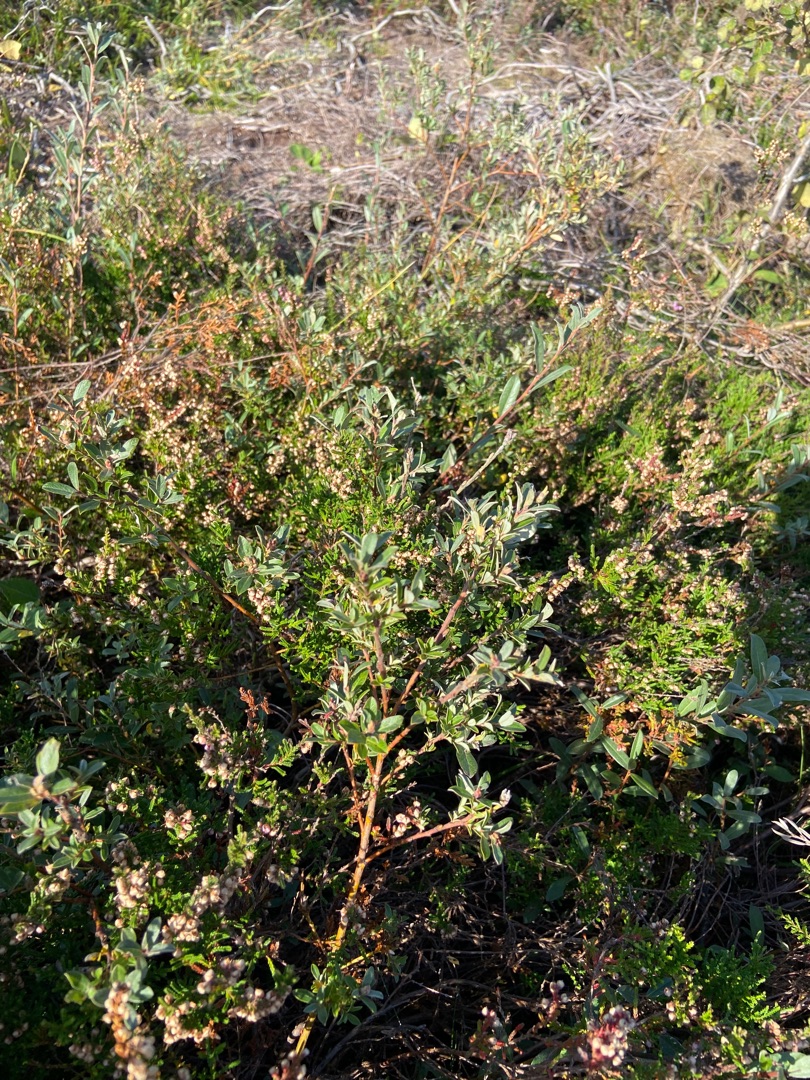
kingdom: Plantae
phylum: Tracheophyta
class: Magnoliopsida
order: Ericales
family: Ericaceae
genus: Calluna
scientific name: Calluna vulgaris
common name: Hedelyng
